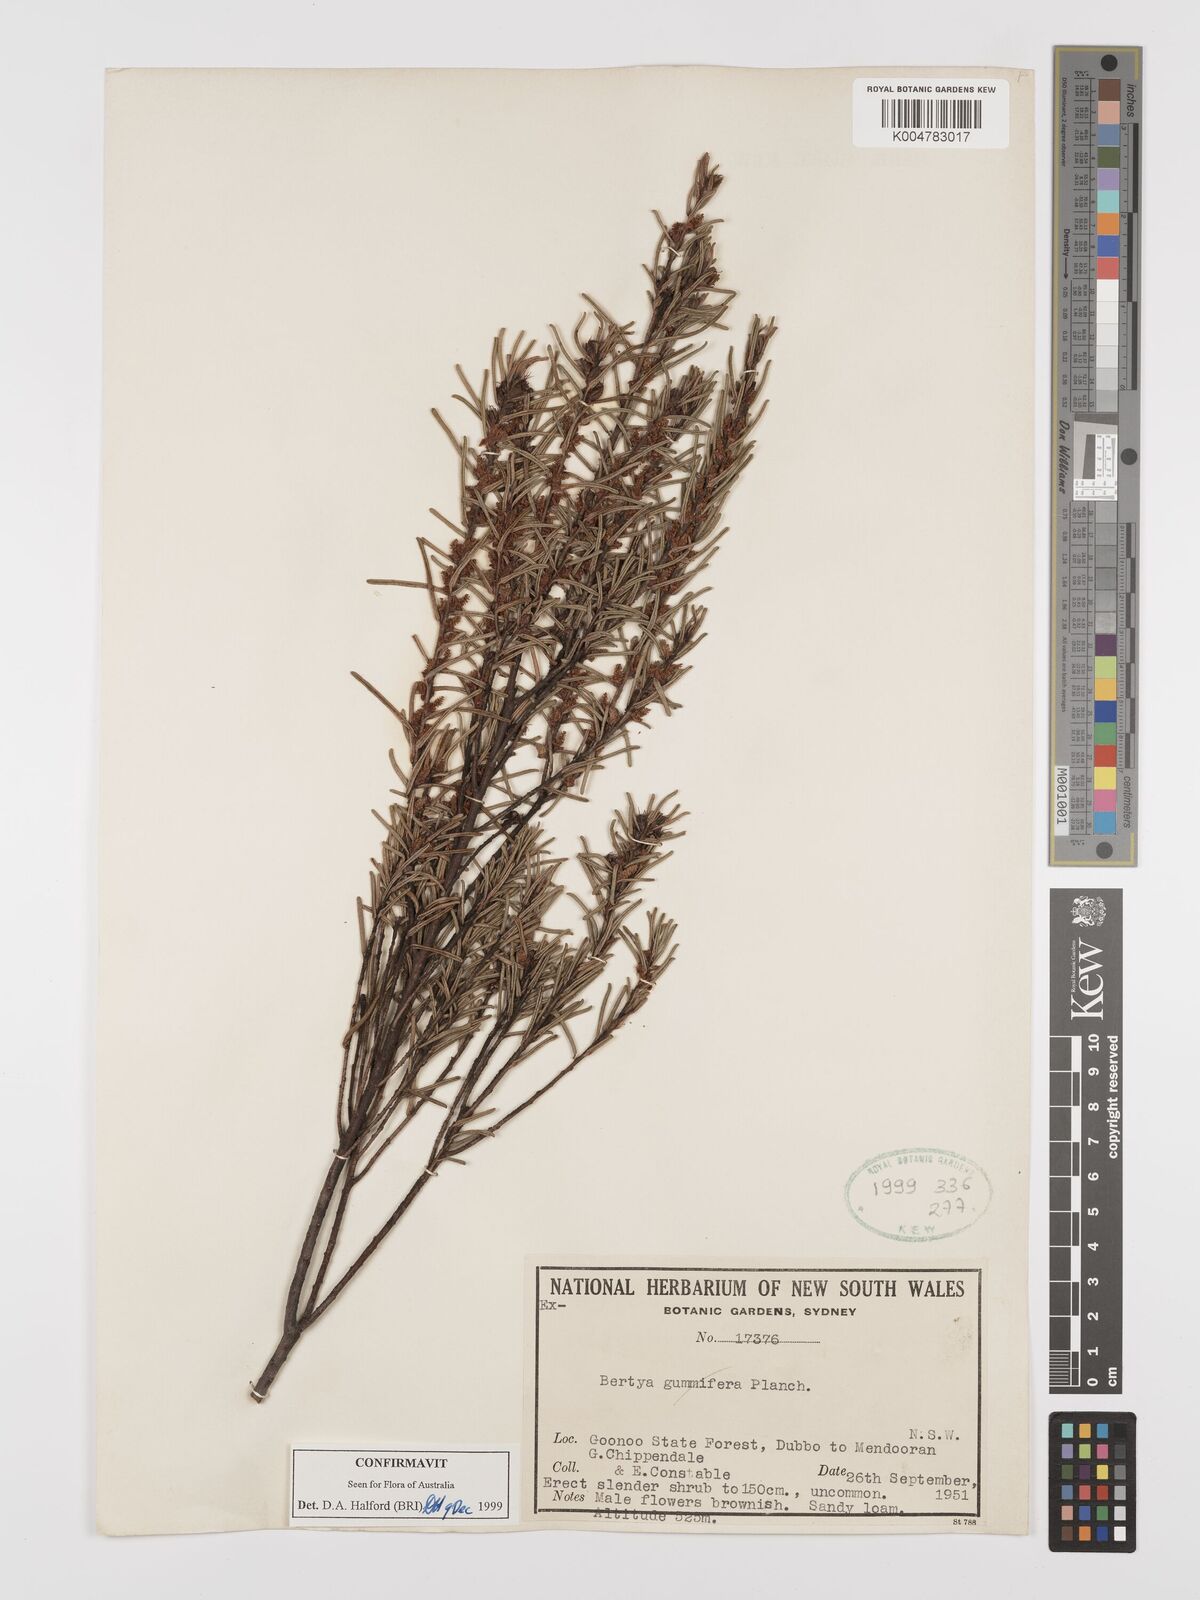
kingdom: Plantae
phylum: Tracheophyta
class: Magnoliopsida
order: Malpighiales
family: Euphorbiaceae
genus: Bertya
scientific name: Bertya gummifera
